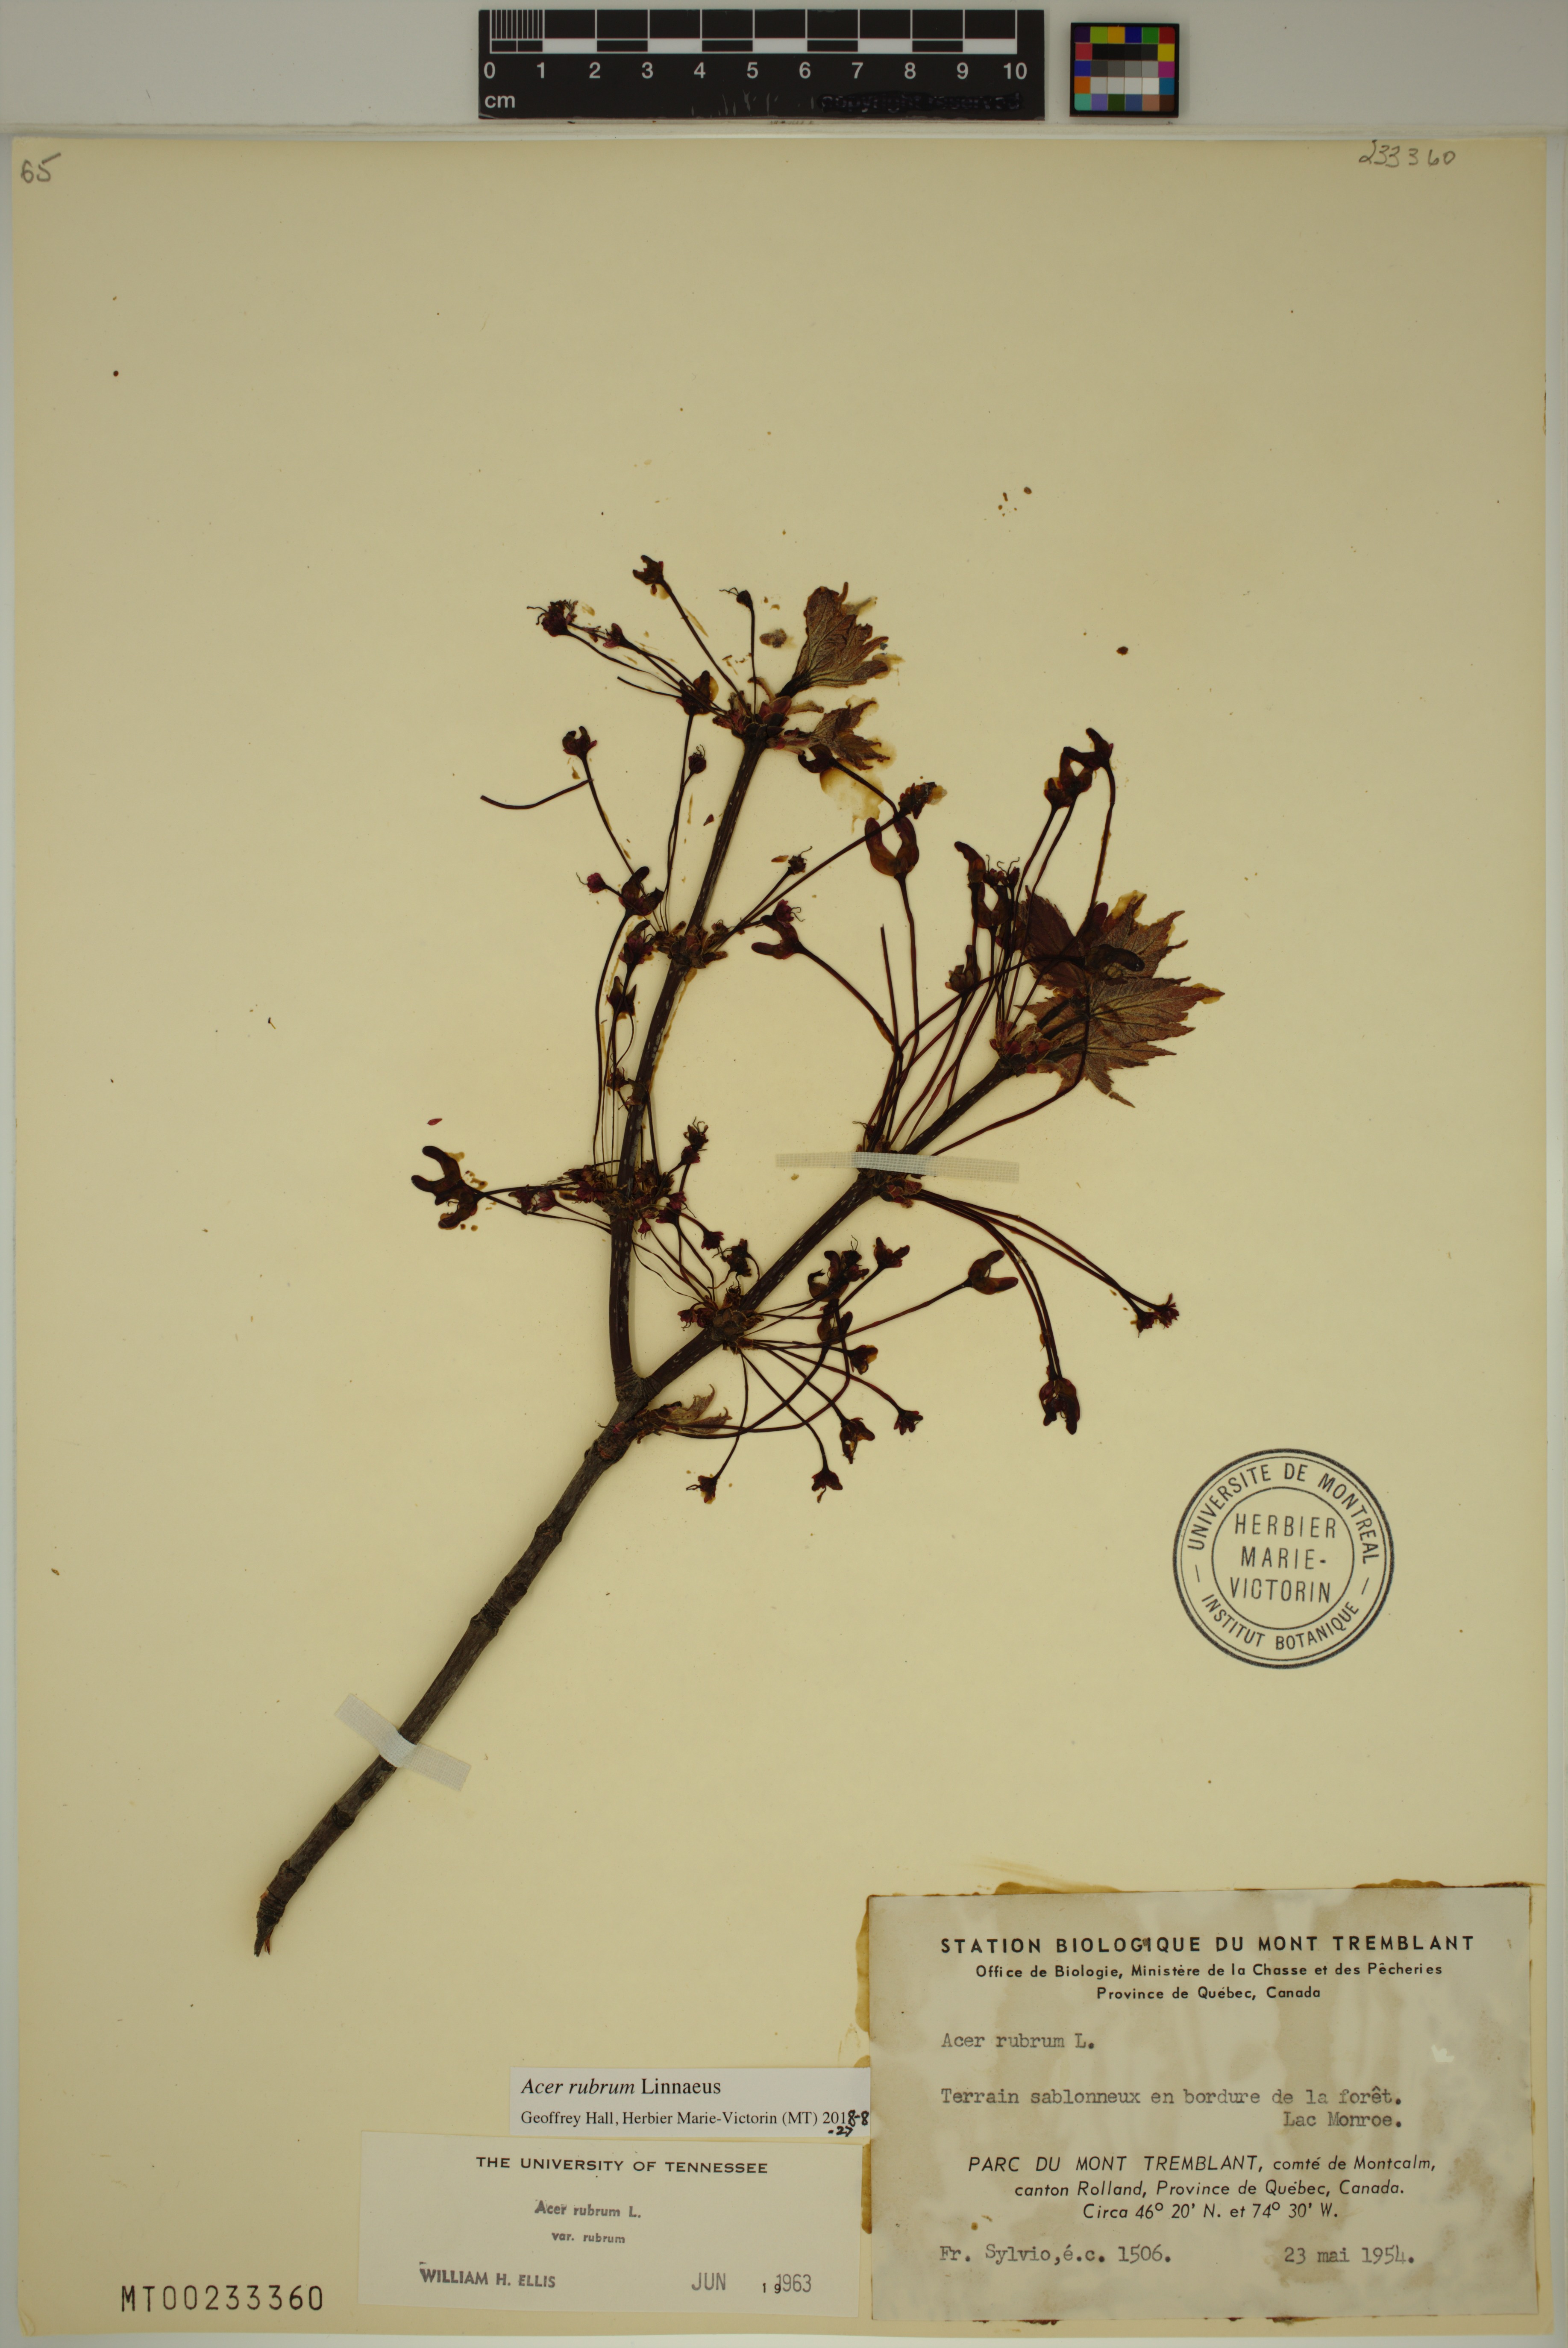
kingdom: Plantae
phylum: Tracheophyta
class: Magnoliopsida
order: Sapindales
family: Sapindaceae
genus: Acer
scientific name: Acer rubrum
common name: Red maple
